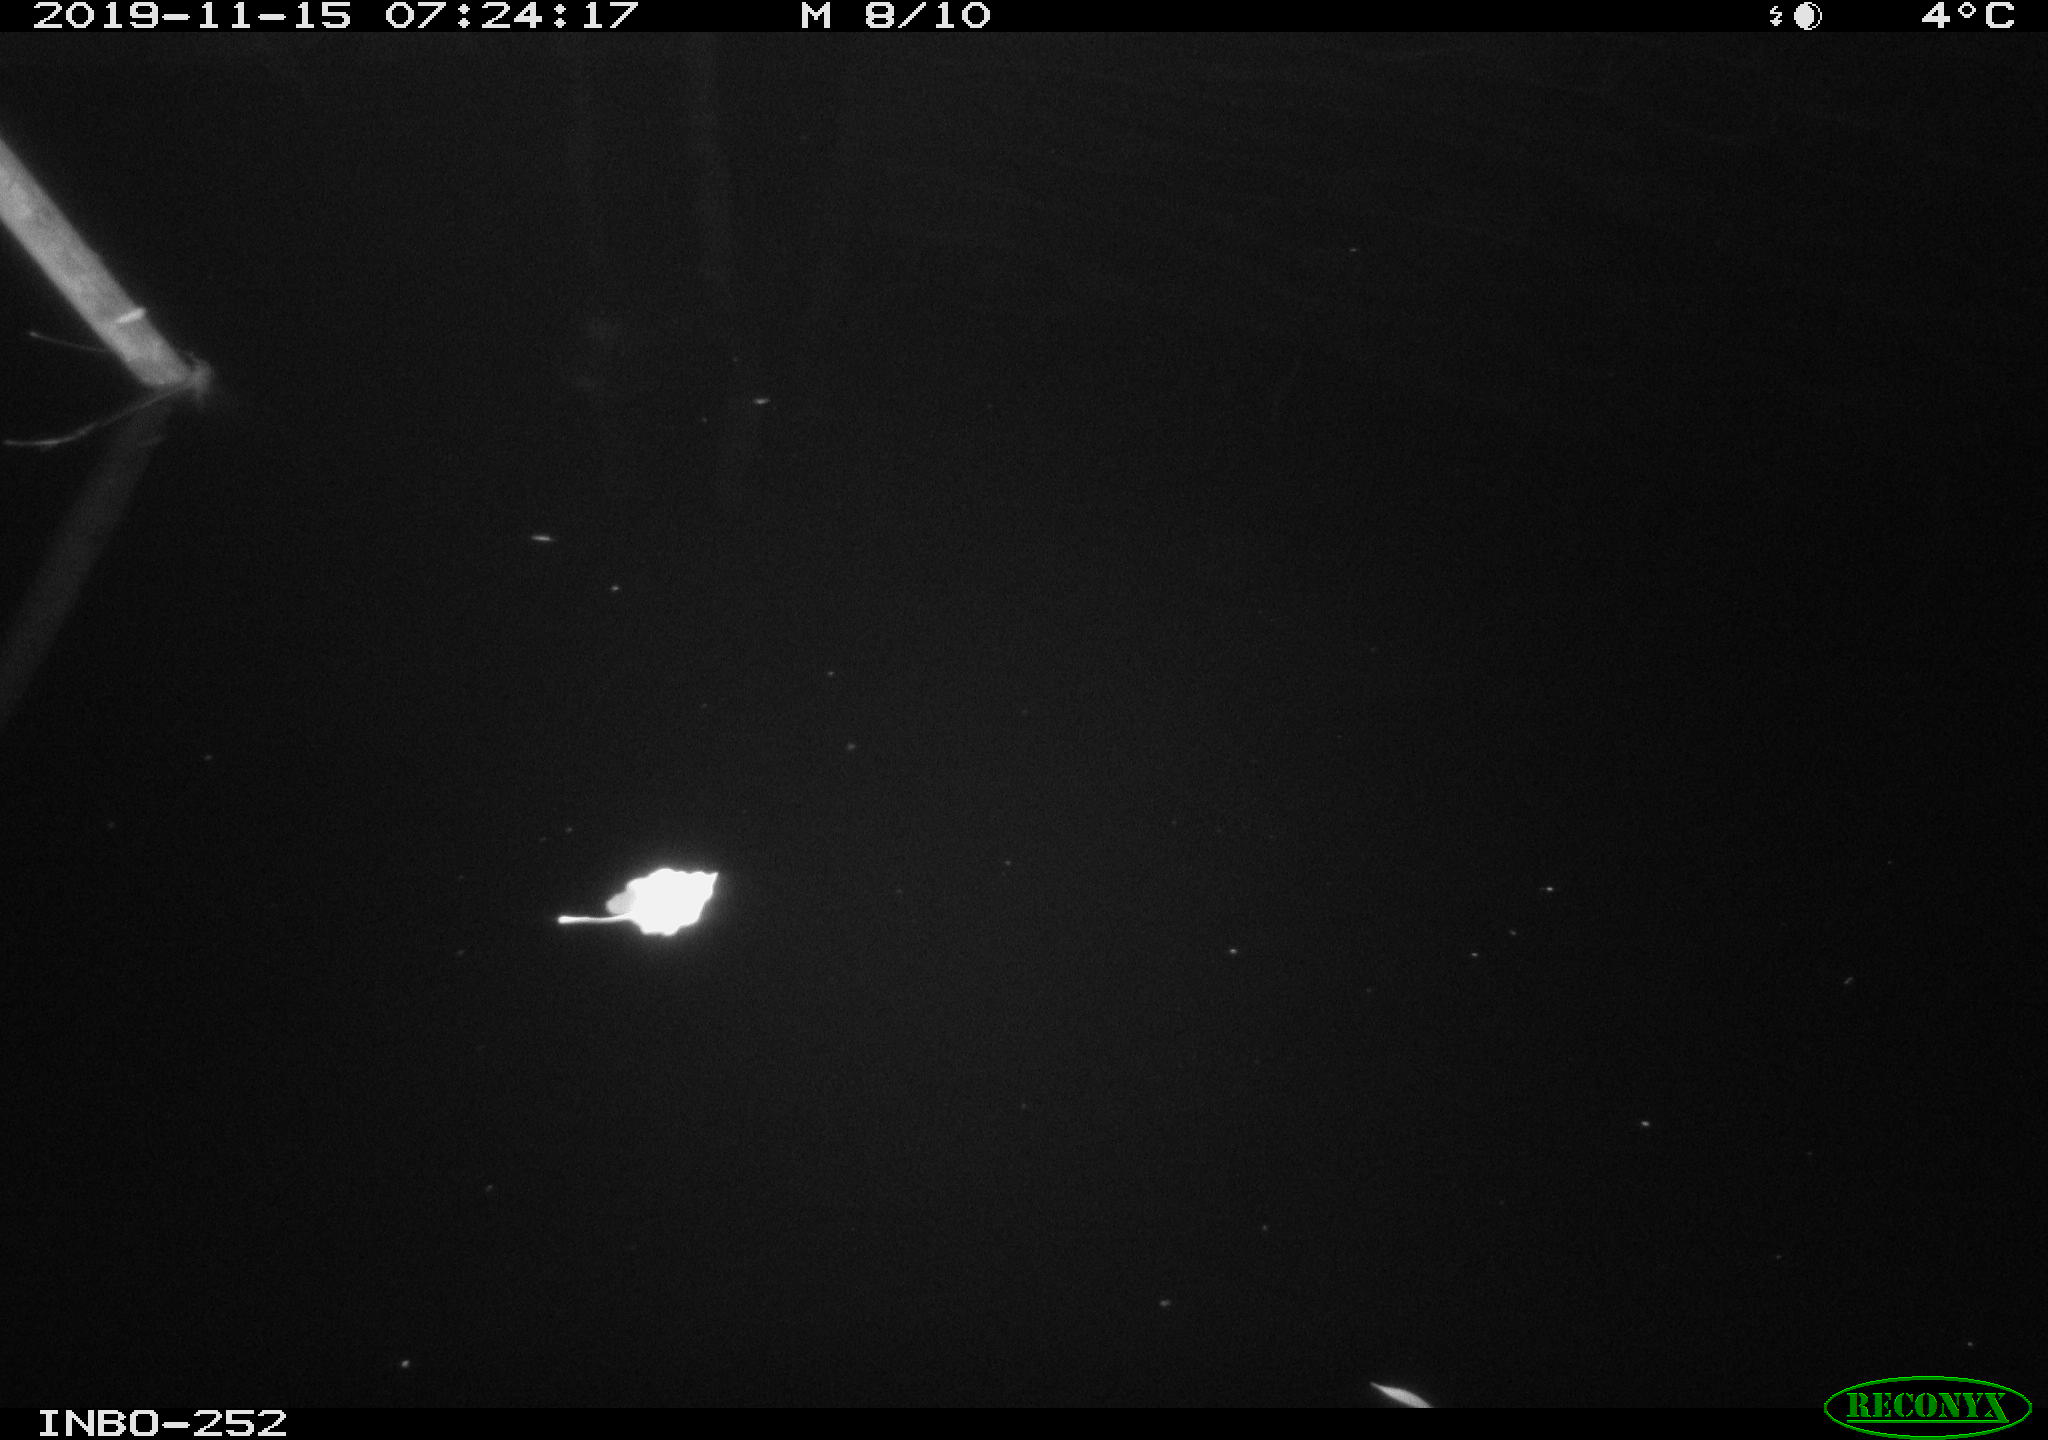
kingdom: Animalia
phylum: Chordata
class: Aves
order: Anseriformes
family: Anatidae
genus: Anas
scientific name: Anas platyrhynchos
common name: Mallard
